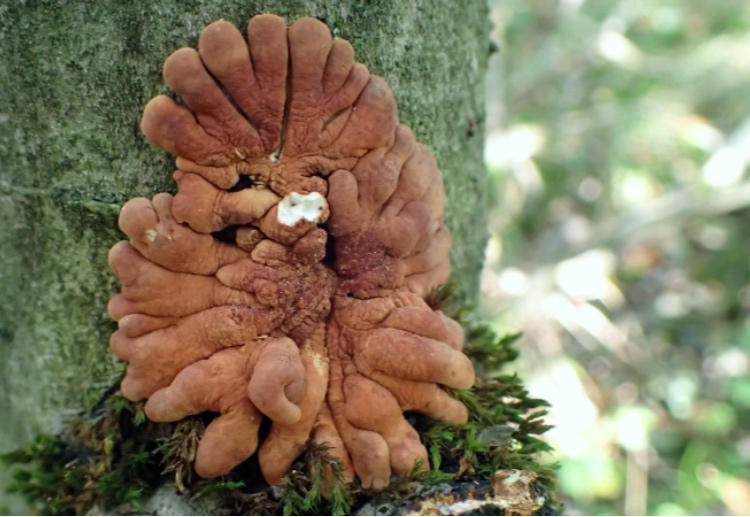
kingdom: Fungi
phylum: Ascomycota
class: Sordariomycetes
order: Hypocreales
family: Hypocreaceae
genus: Hypocreopsis
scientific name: Hypocreopsis lichenoides
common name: pilfinger
